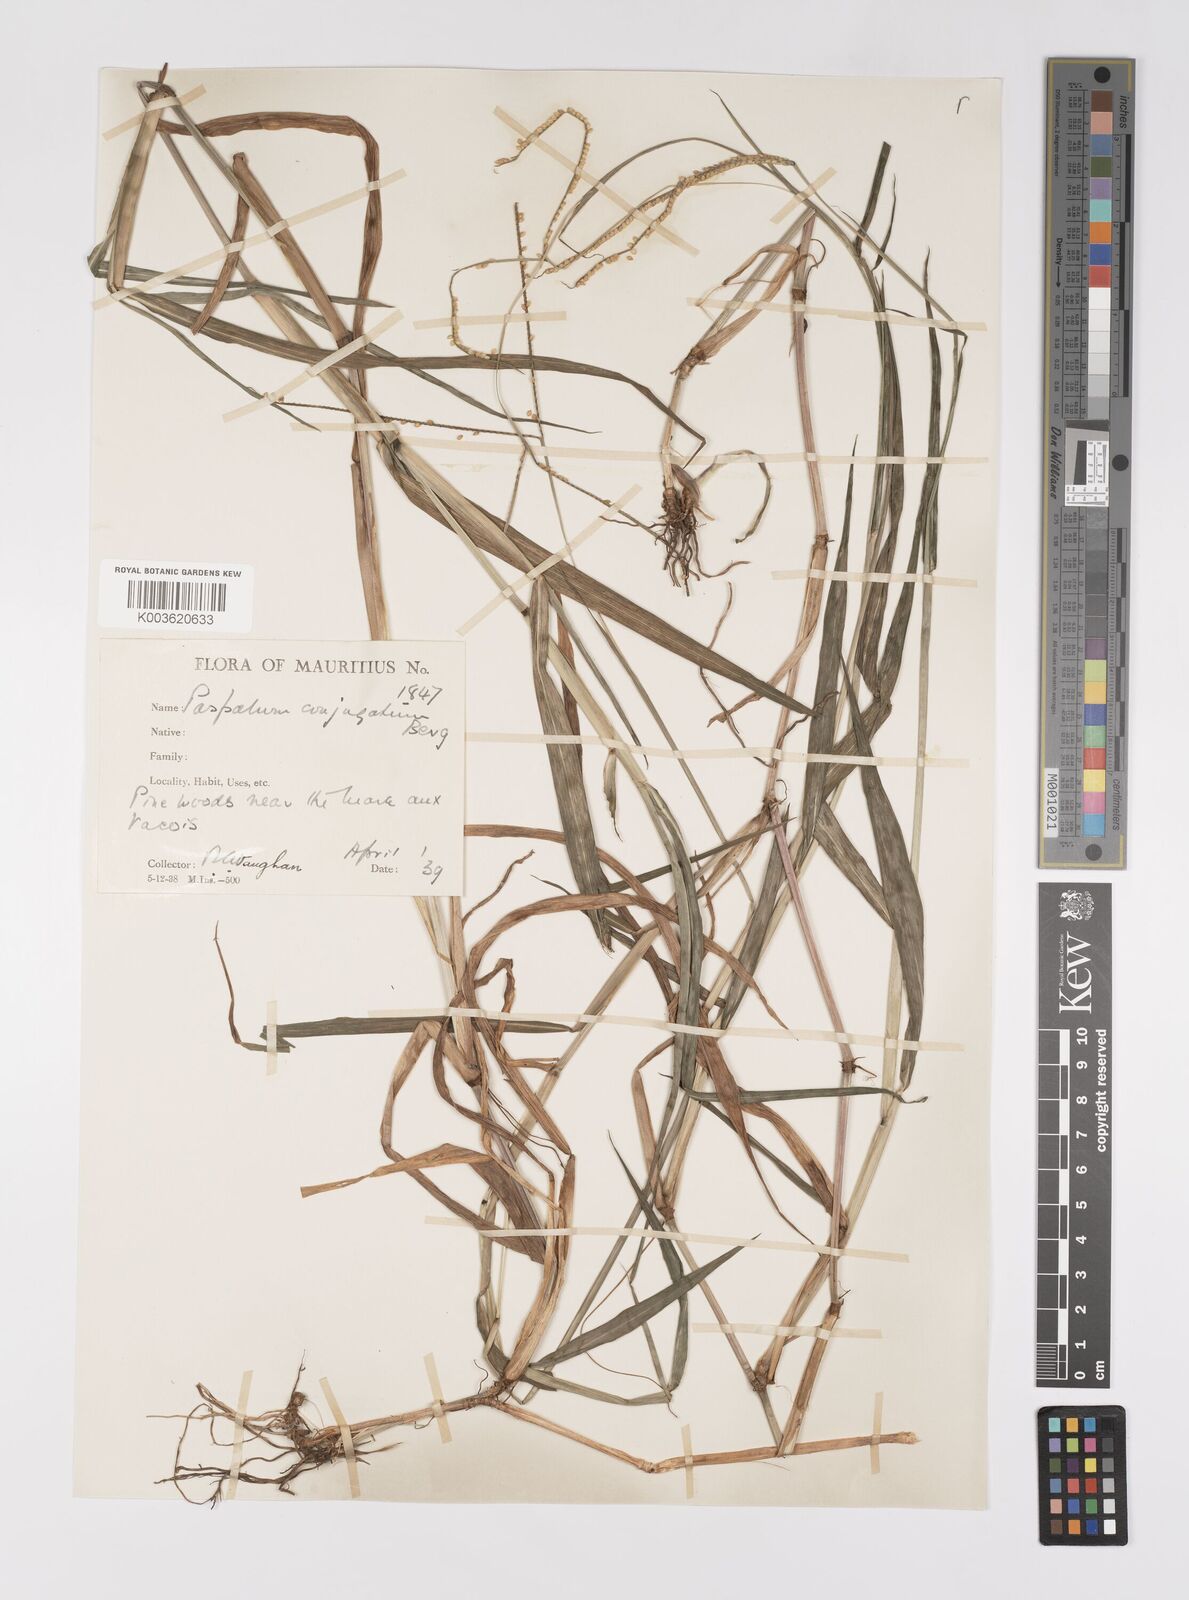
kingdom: Plantae
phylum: Tracheophyta
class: Liliopsida
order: Poales
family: Poaceae
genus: Paspalum
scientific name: Paspalum conjugatum
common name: Hilograss
